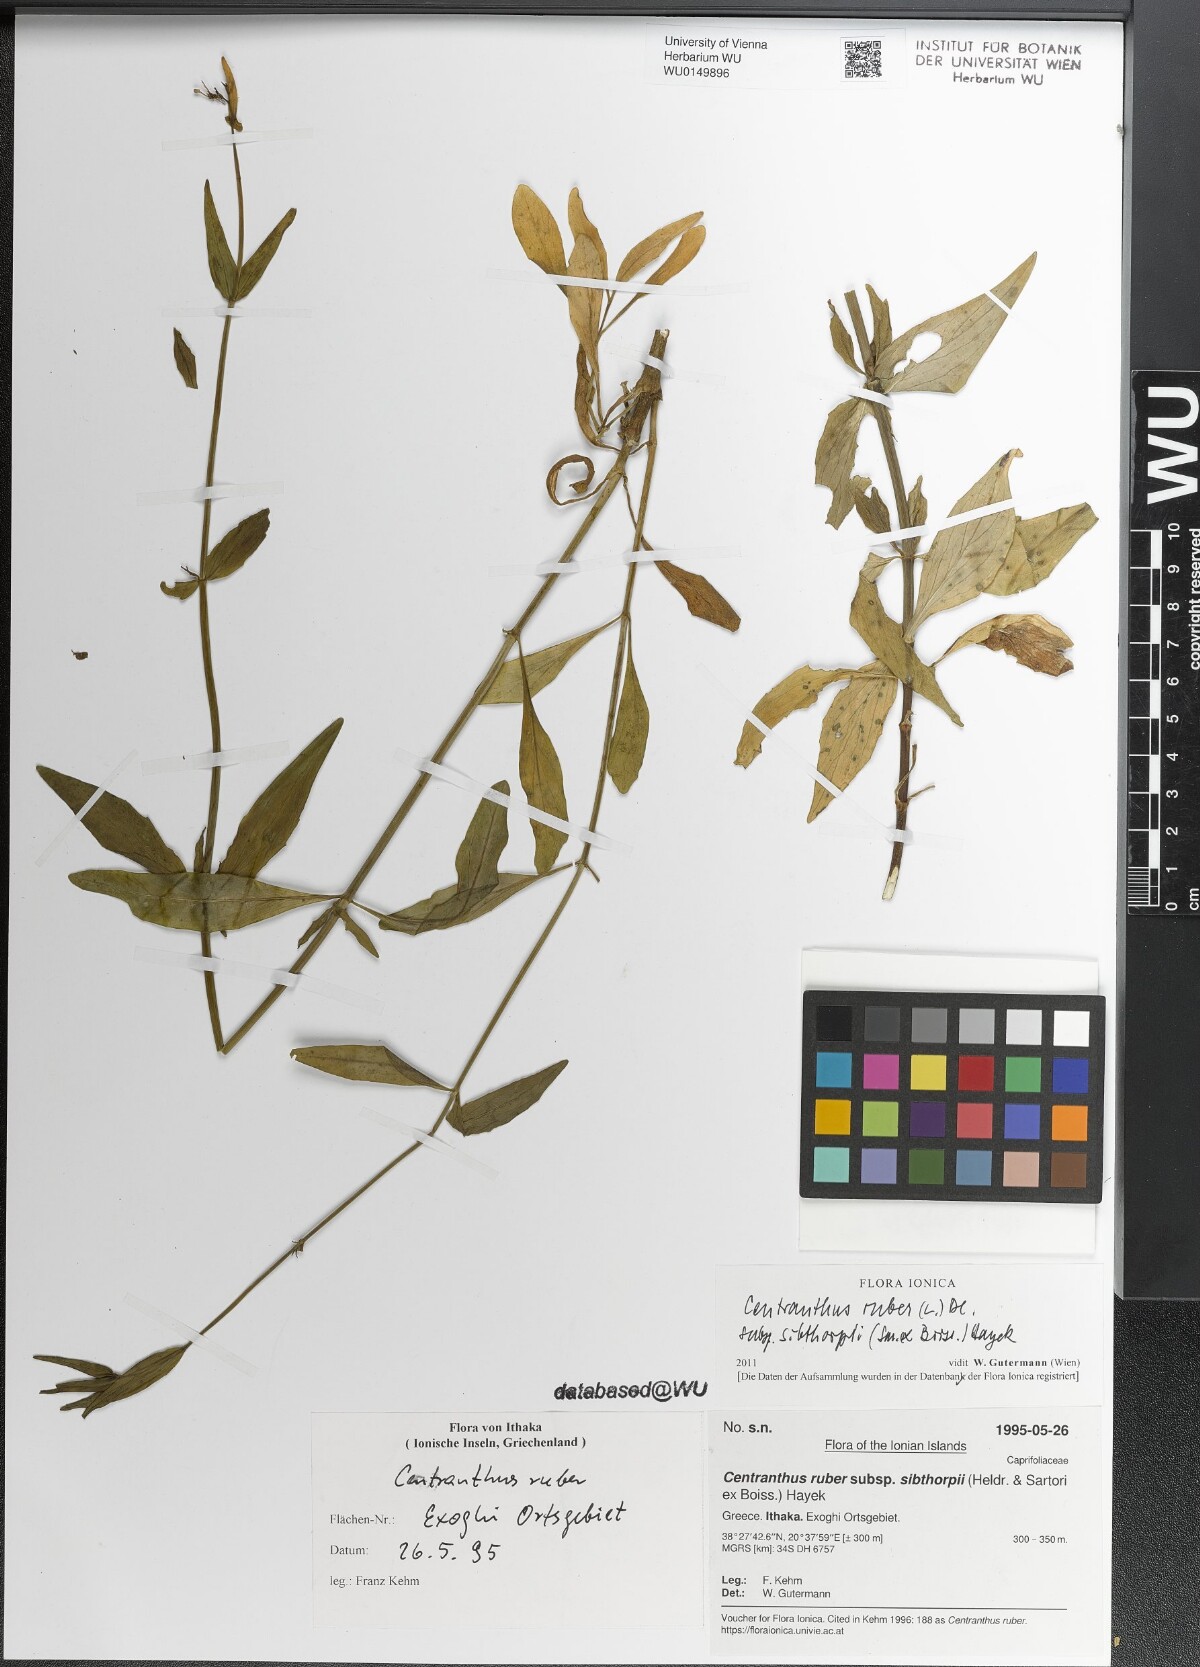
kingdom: Plantae
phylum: Tracheophyta
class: Magnoliopsida
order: Dipsacales
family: Caprifoliaceae
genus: Centranthus
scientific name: Centranthus ruber
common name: Red valerian
